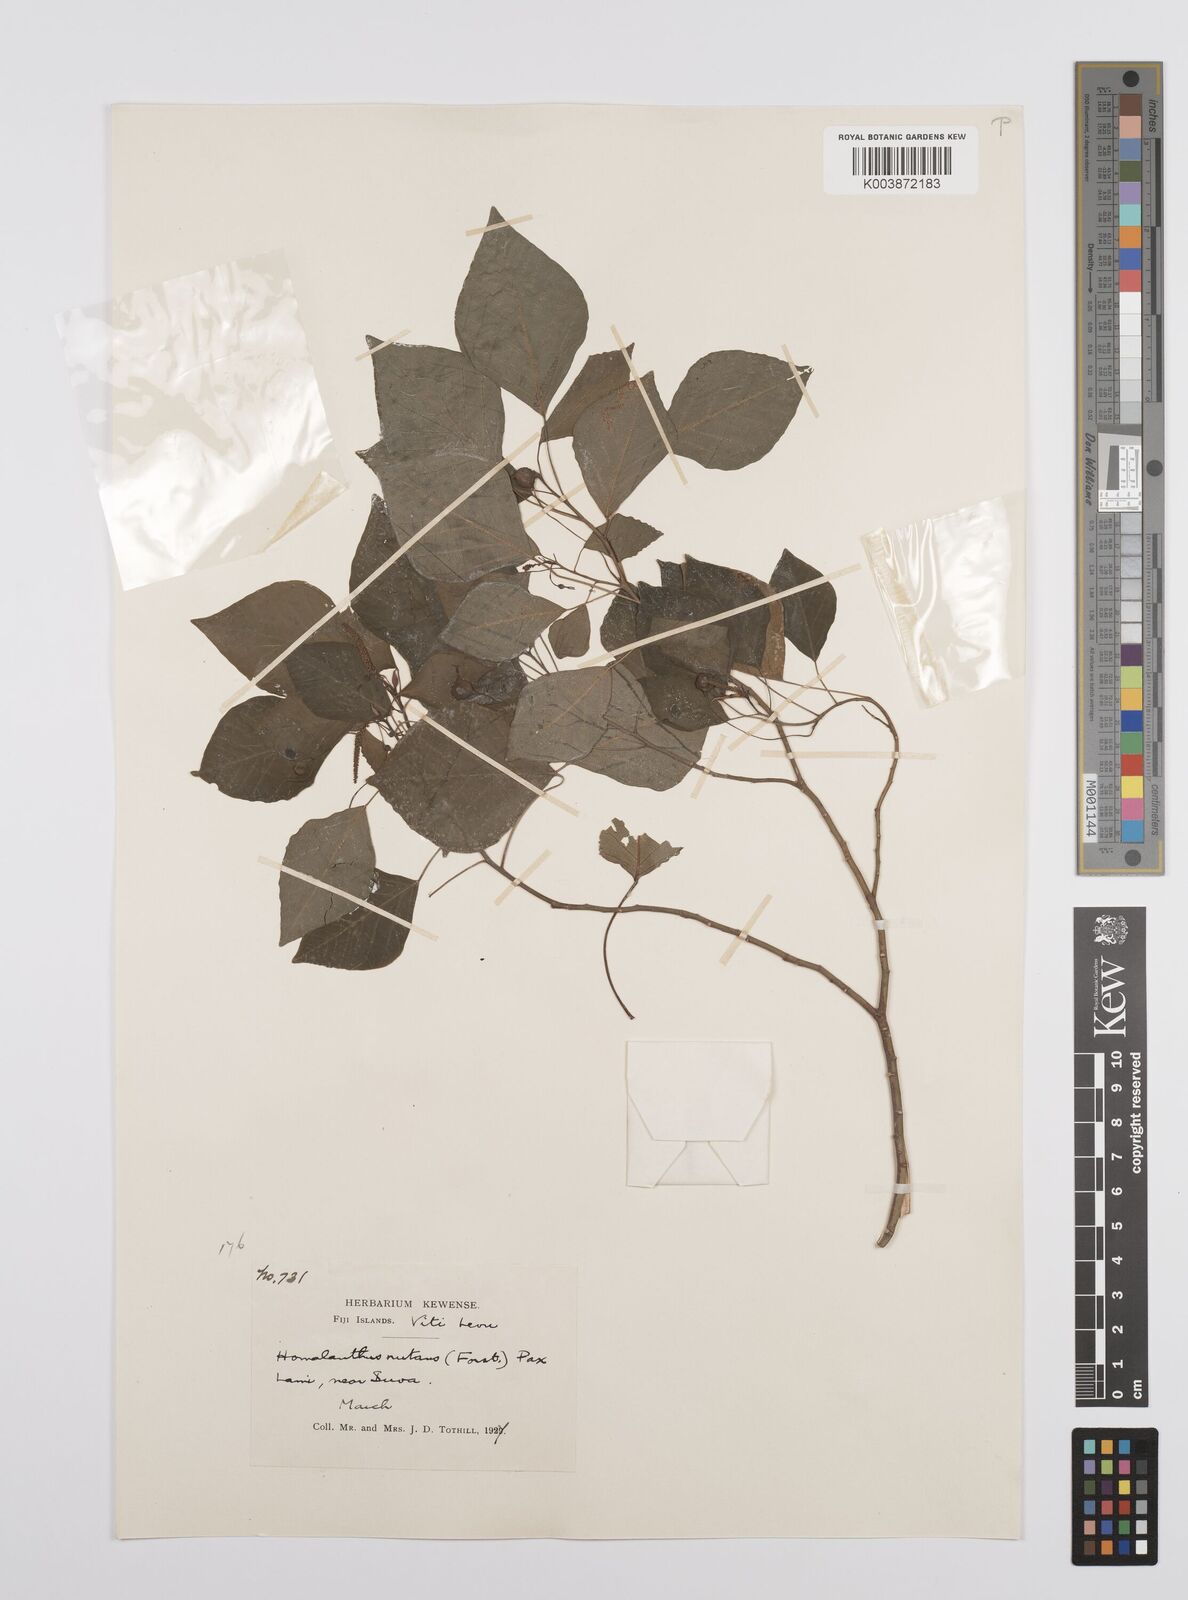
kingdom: Plantae
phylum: Tracheophyta
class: Magnoliopsida
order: Malpighiales
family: Euphorbiaceae
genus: Homalanthus
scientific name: Homalanthus nutans
